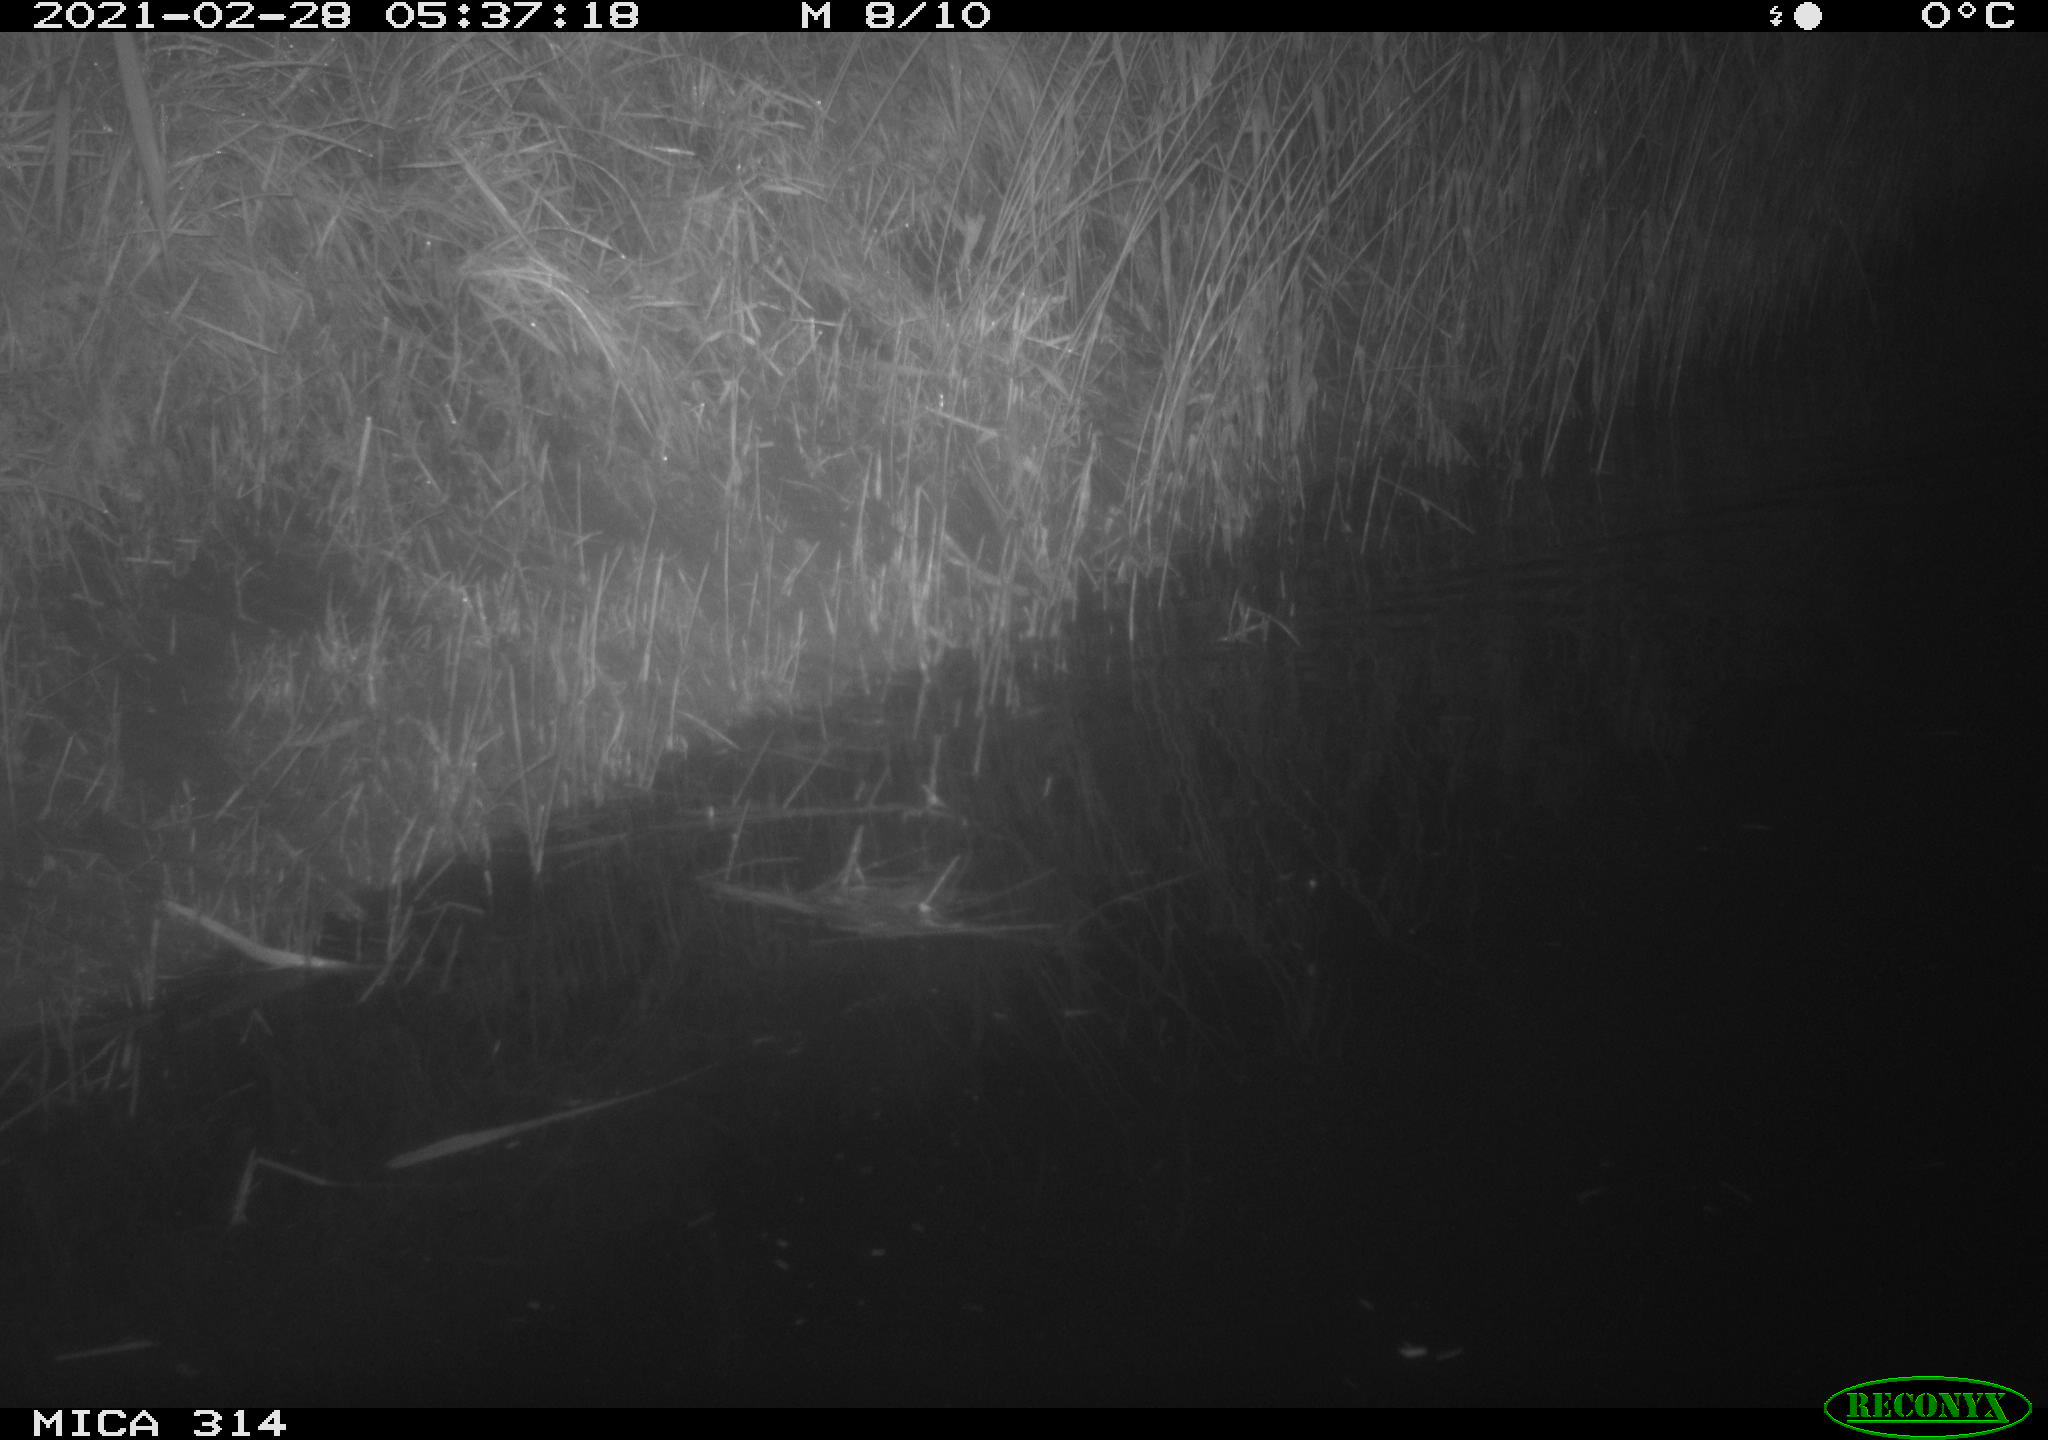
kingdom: Animalia
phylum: Chordata
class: Aves
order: Anseriformes
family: Anatidae
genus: Anas
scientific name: Anas platyrhynchos
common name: Mallard
